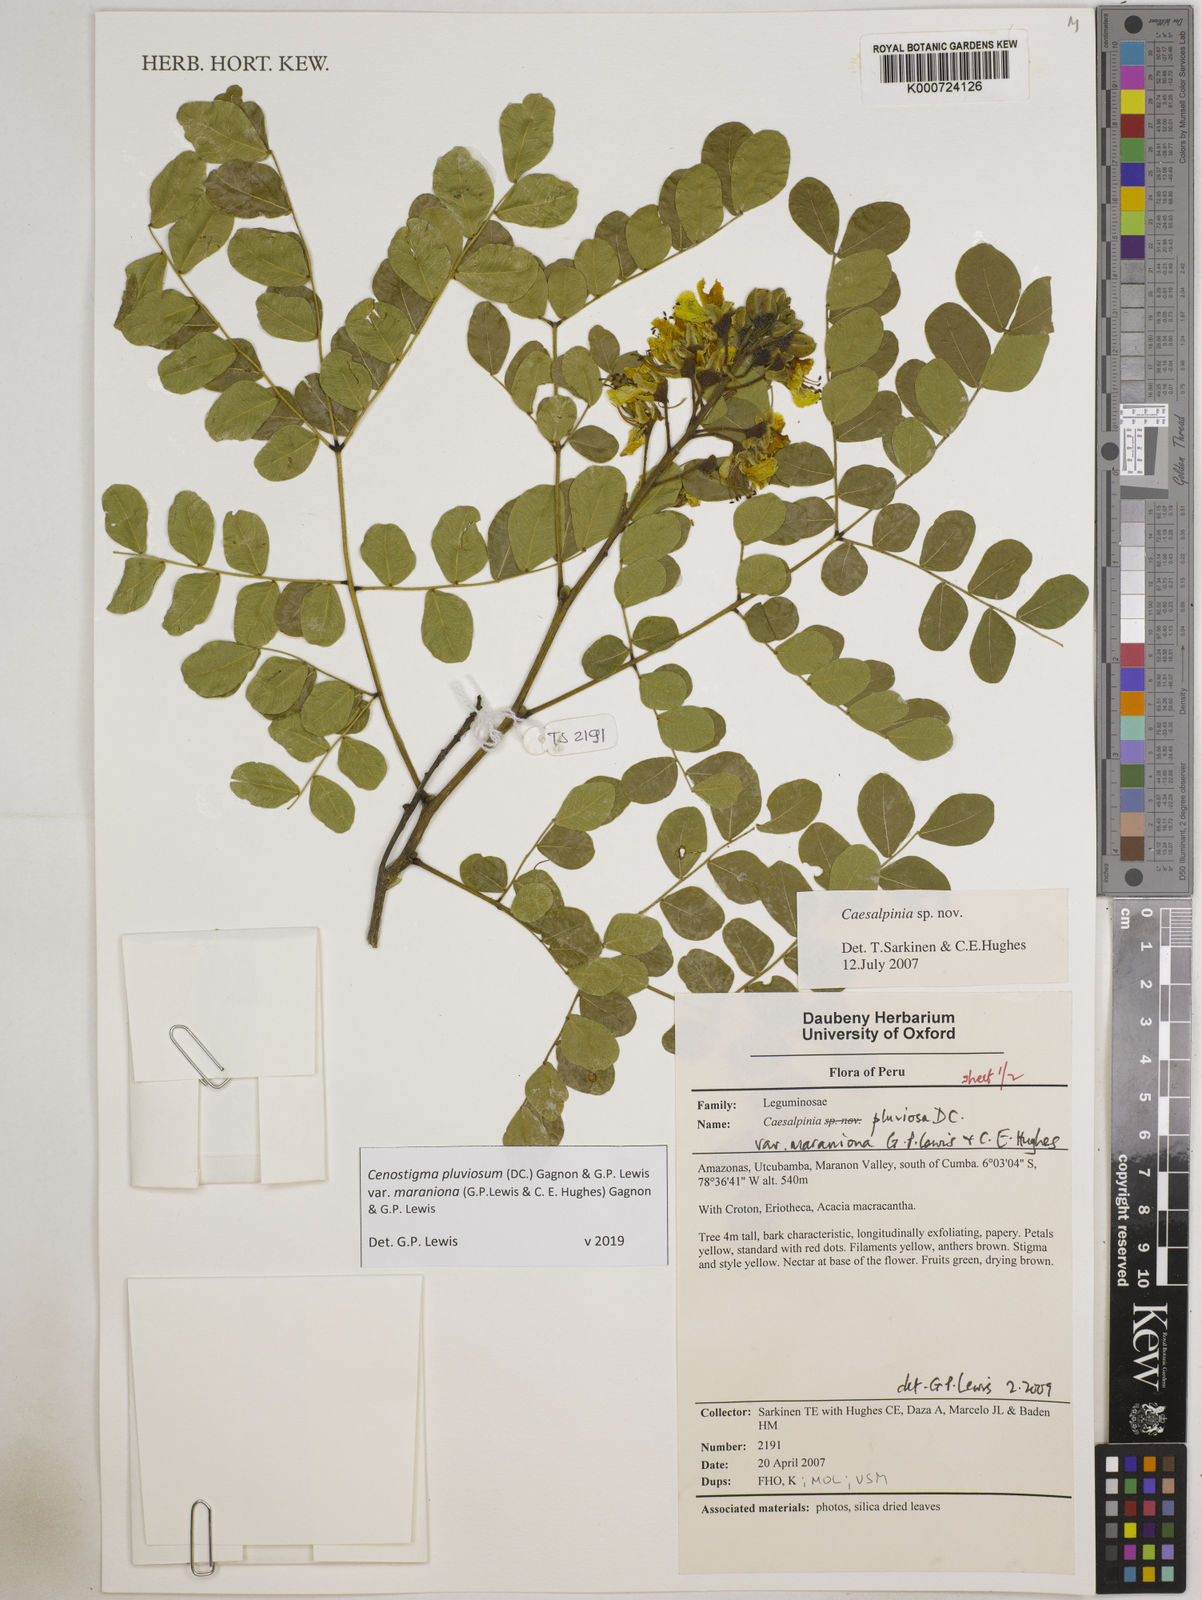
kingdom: Plantae
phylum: Tracheophyta
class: Magnoliopsida
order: Fabales
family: Fabaceae
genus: Cenostigma
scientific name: Cenostigma pluviosum
